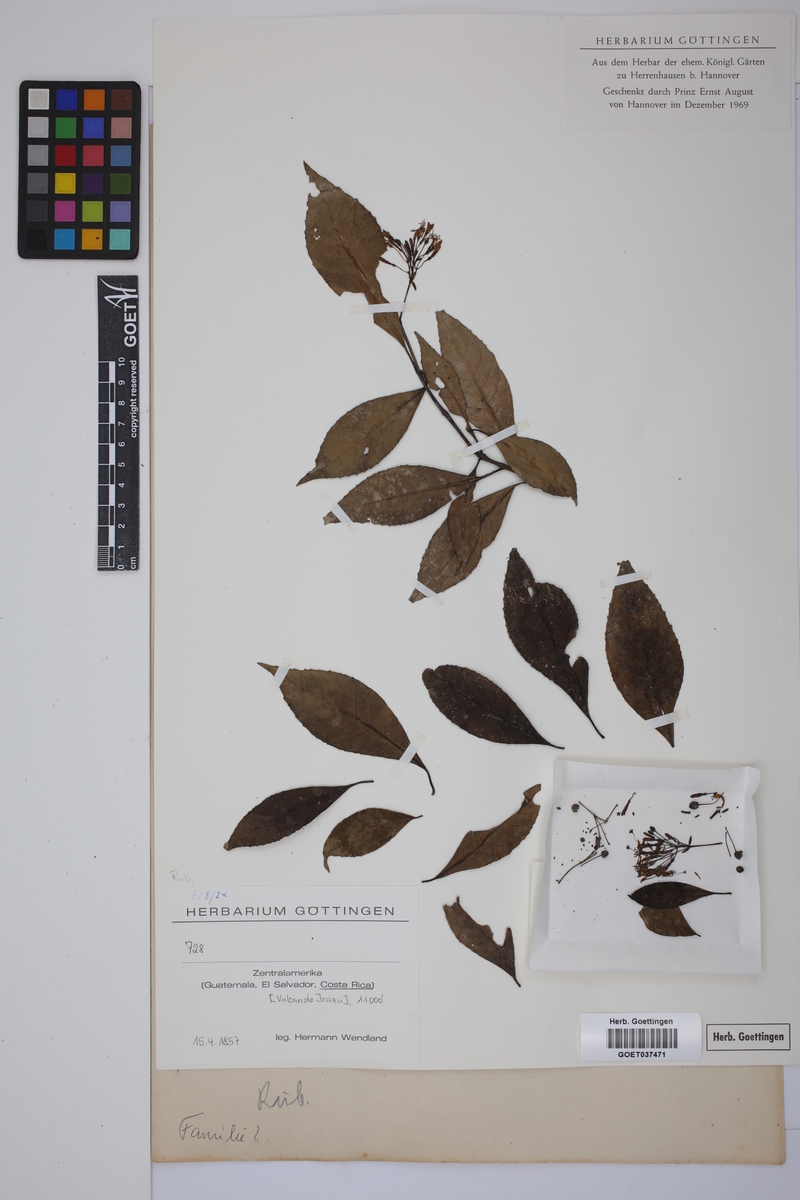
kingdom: Plantae
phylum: Tracheophyta
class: Magnoliopsida
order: Gentianales
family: Rubiaceae
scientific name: Rubiaceae
